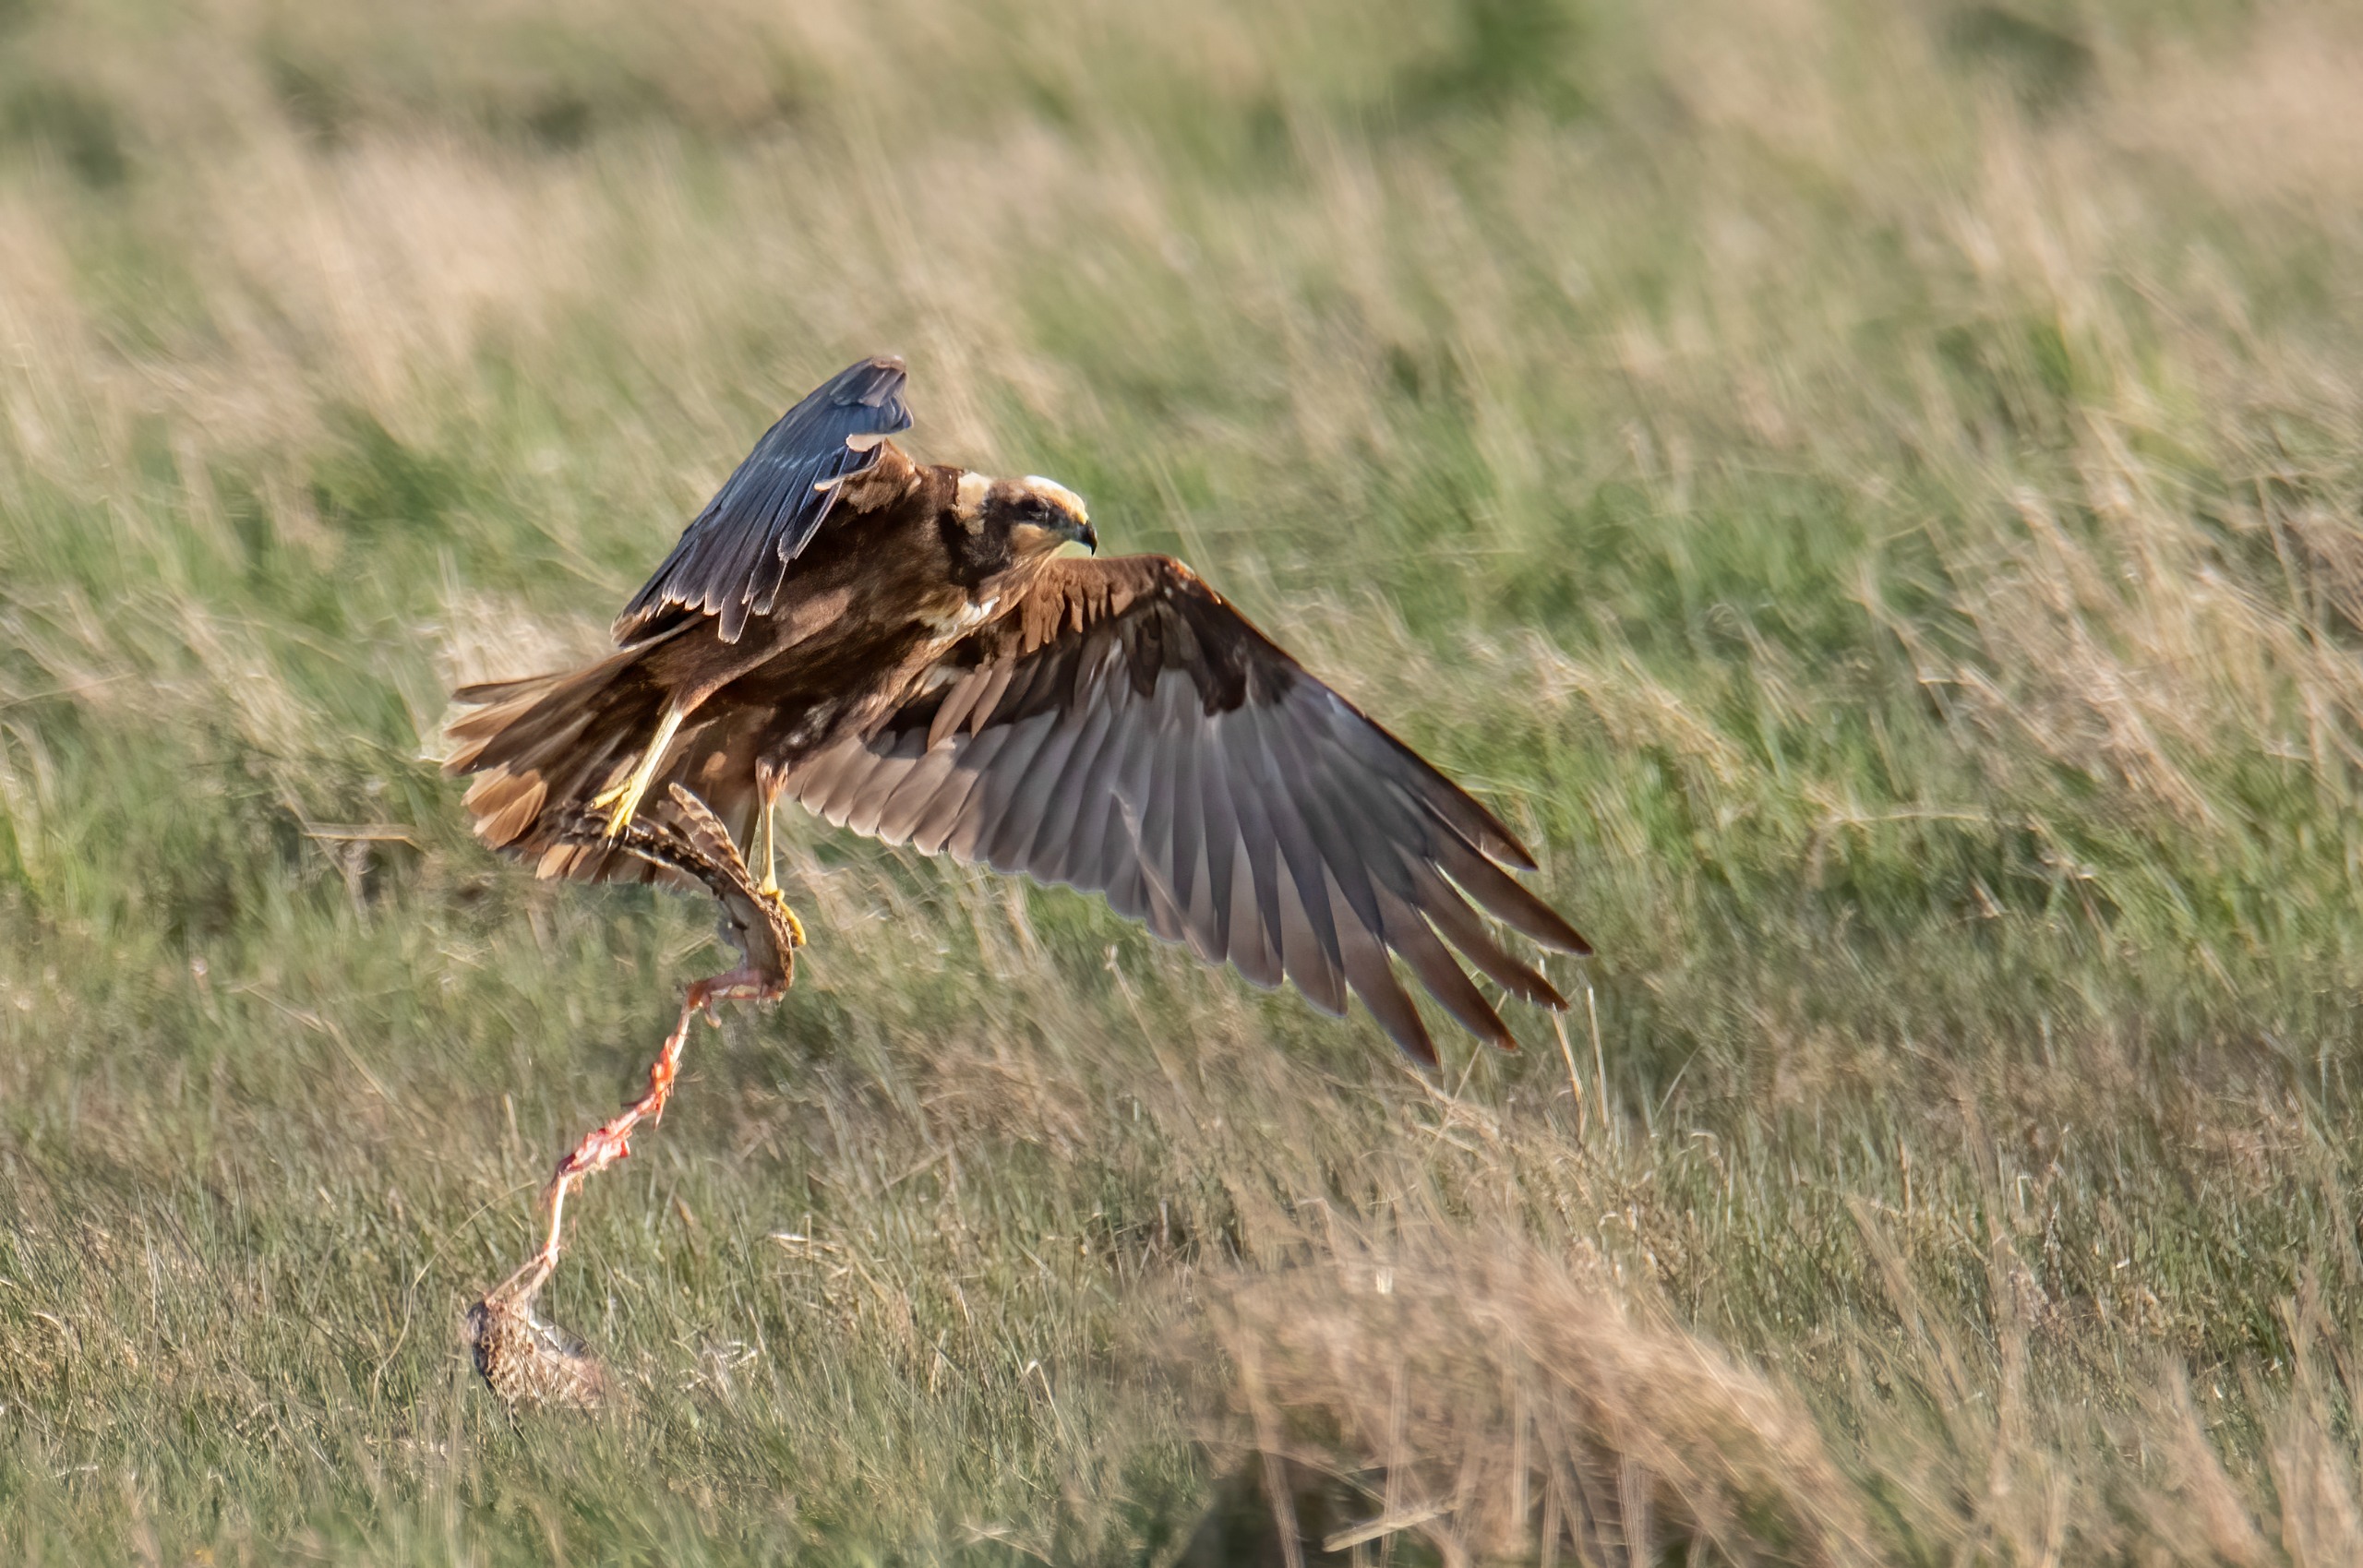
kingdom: Animalia
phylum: Chordata
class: Aves
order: Accipitriformes
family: Accipitridae
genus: Circus
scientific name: Circus aeruginosus
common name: Rørhøg
